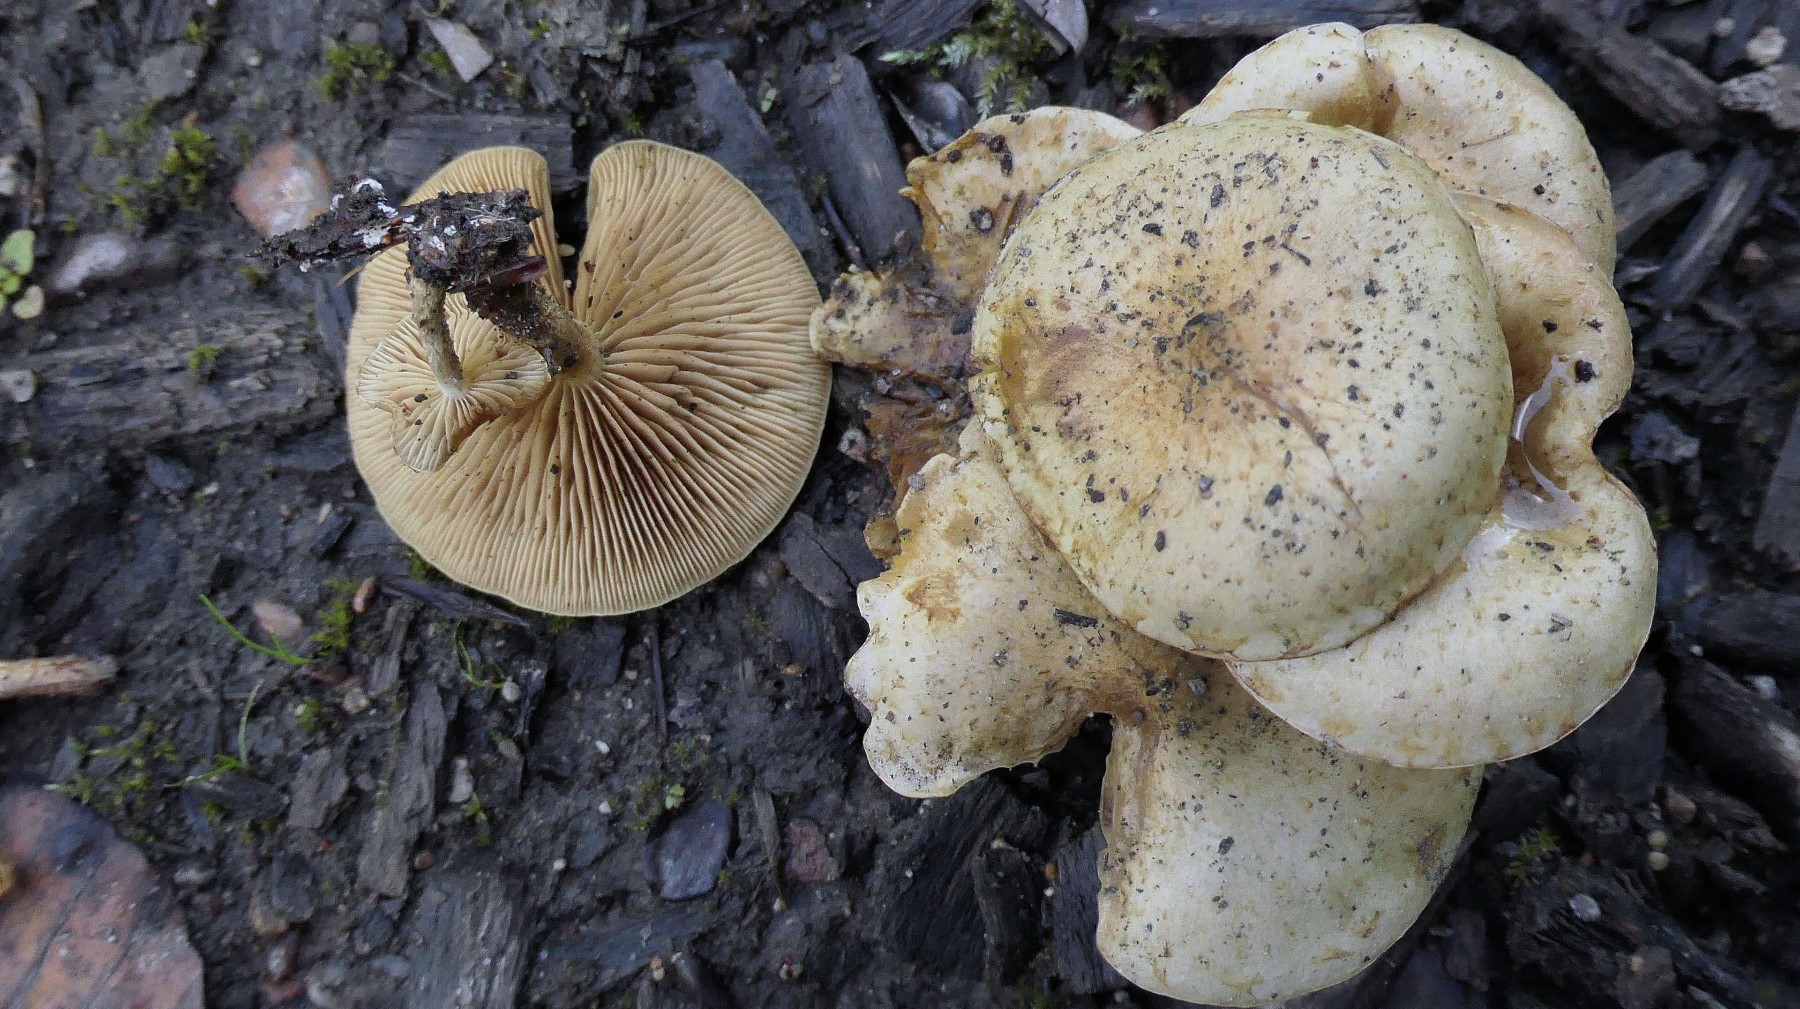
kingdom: Fungi
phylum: Basidiomycota
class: Agaricomycetes
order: Agaricales
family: Strophariaceae
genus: Pholiota
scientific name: Pholiota gummosa
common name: grøngul skælhat
